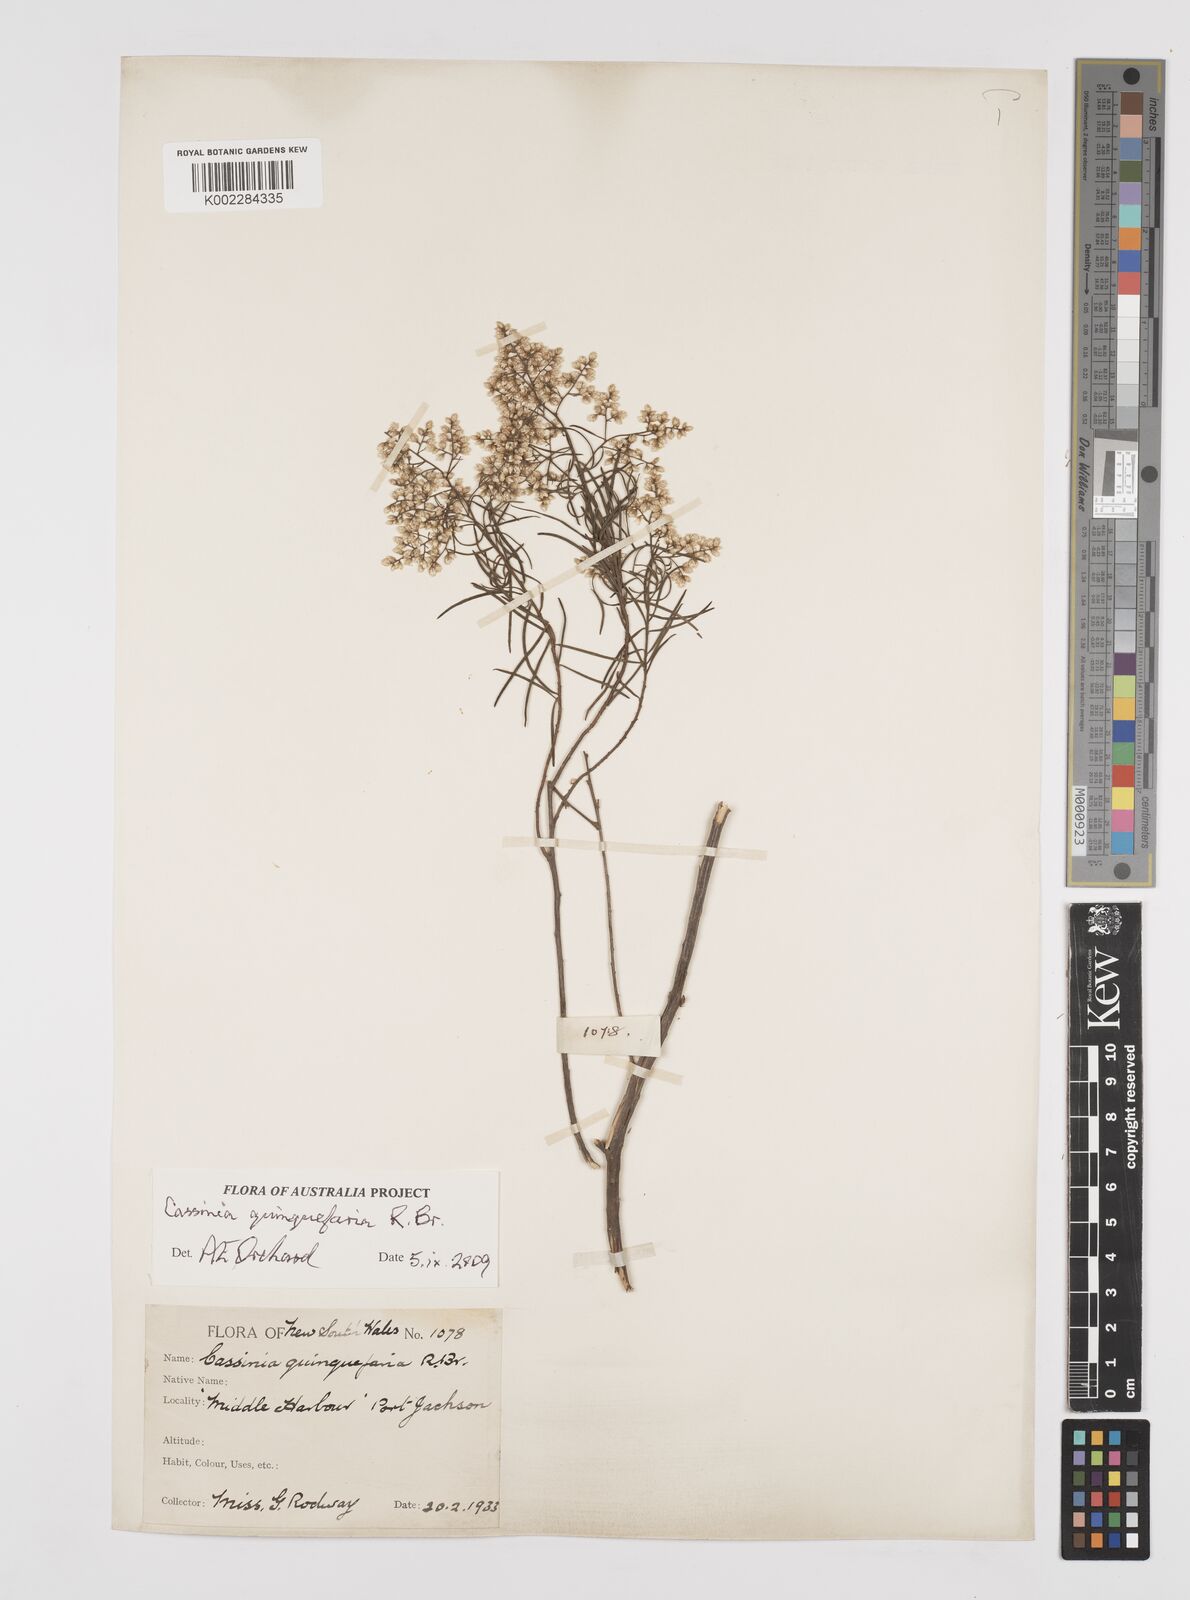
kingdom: Plantae
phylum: Tracheophyta
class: Magnoliopsida
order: Asterales
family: Asteraceae
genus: Cassinia
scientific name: Cassinia quinquefaria
